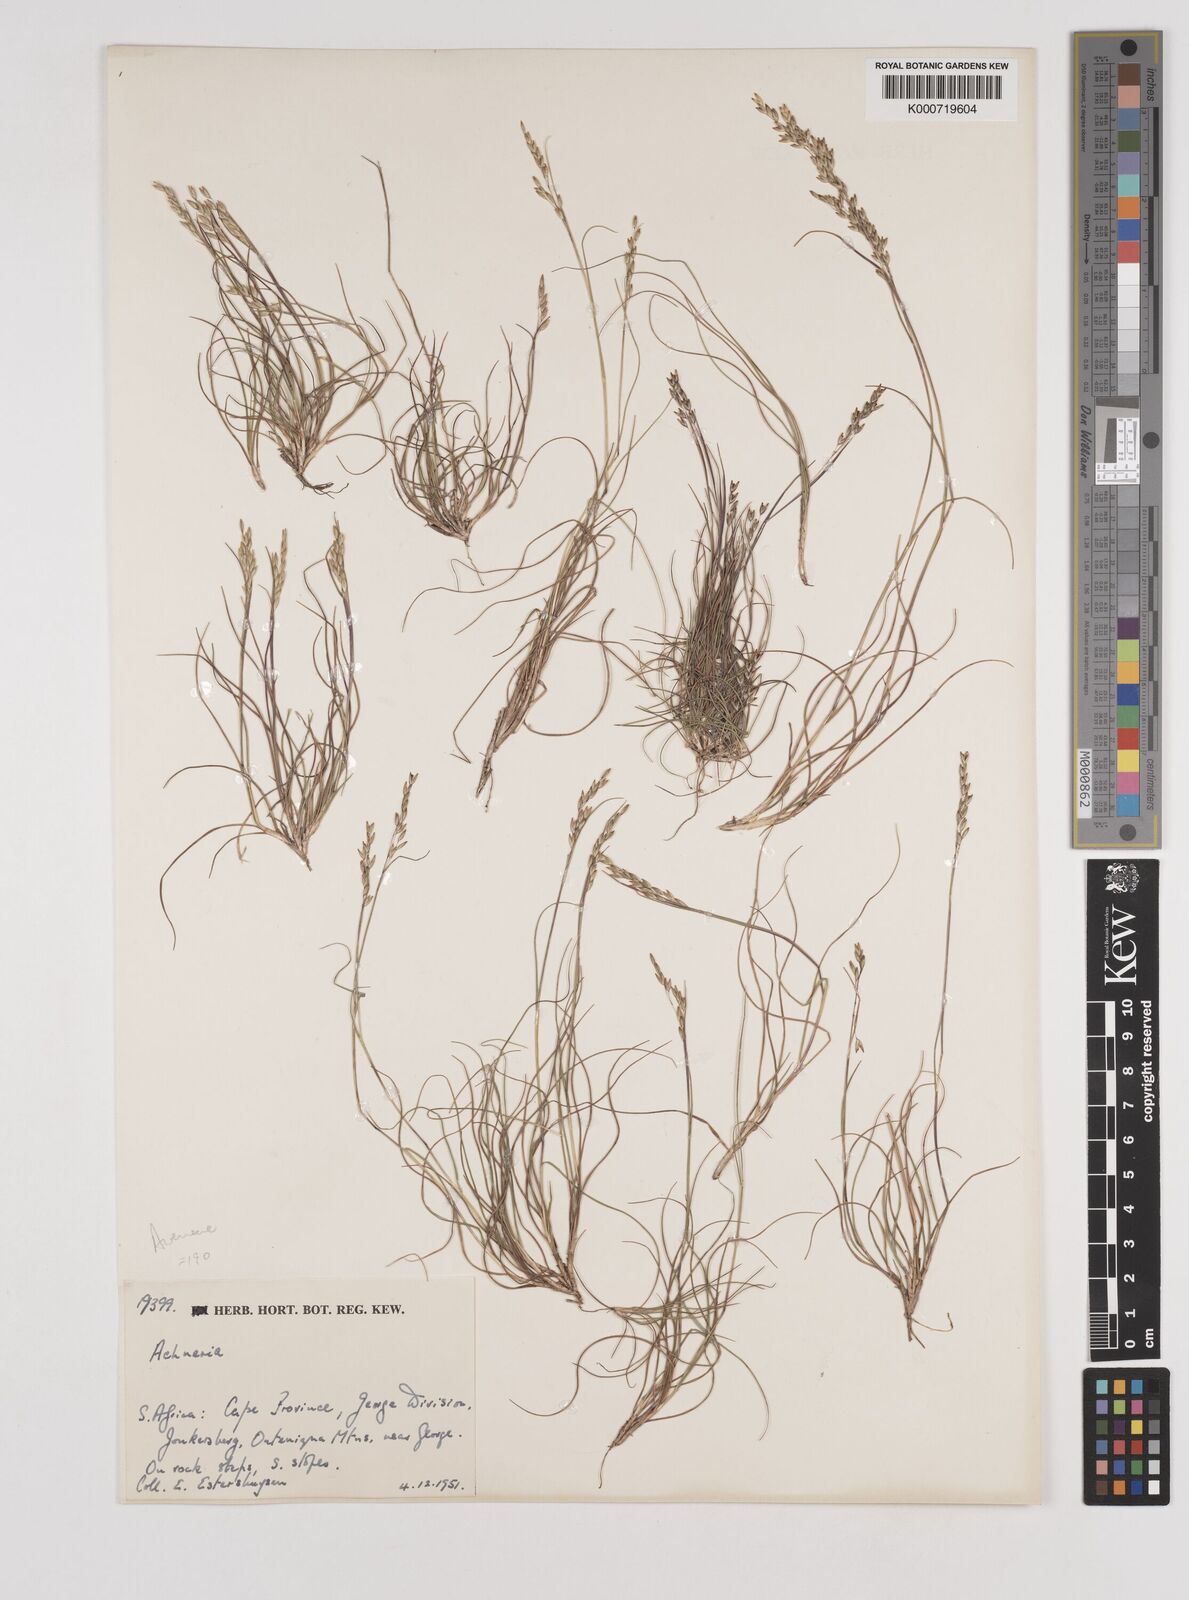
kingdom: Plantae
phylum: Tracheophyta
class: Liliopsida
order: Poales
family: Poaceae
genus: Pentameris
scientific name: Pentameris malouinensis
